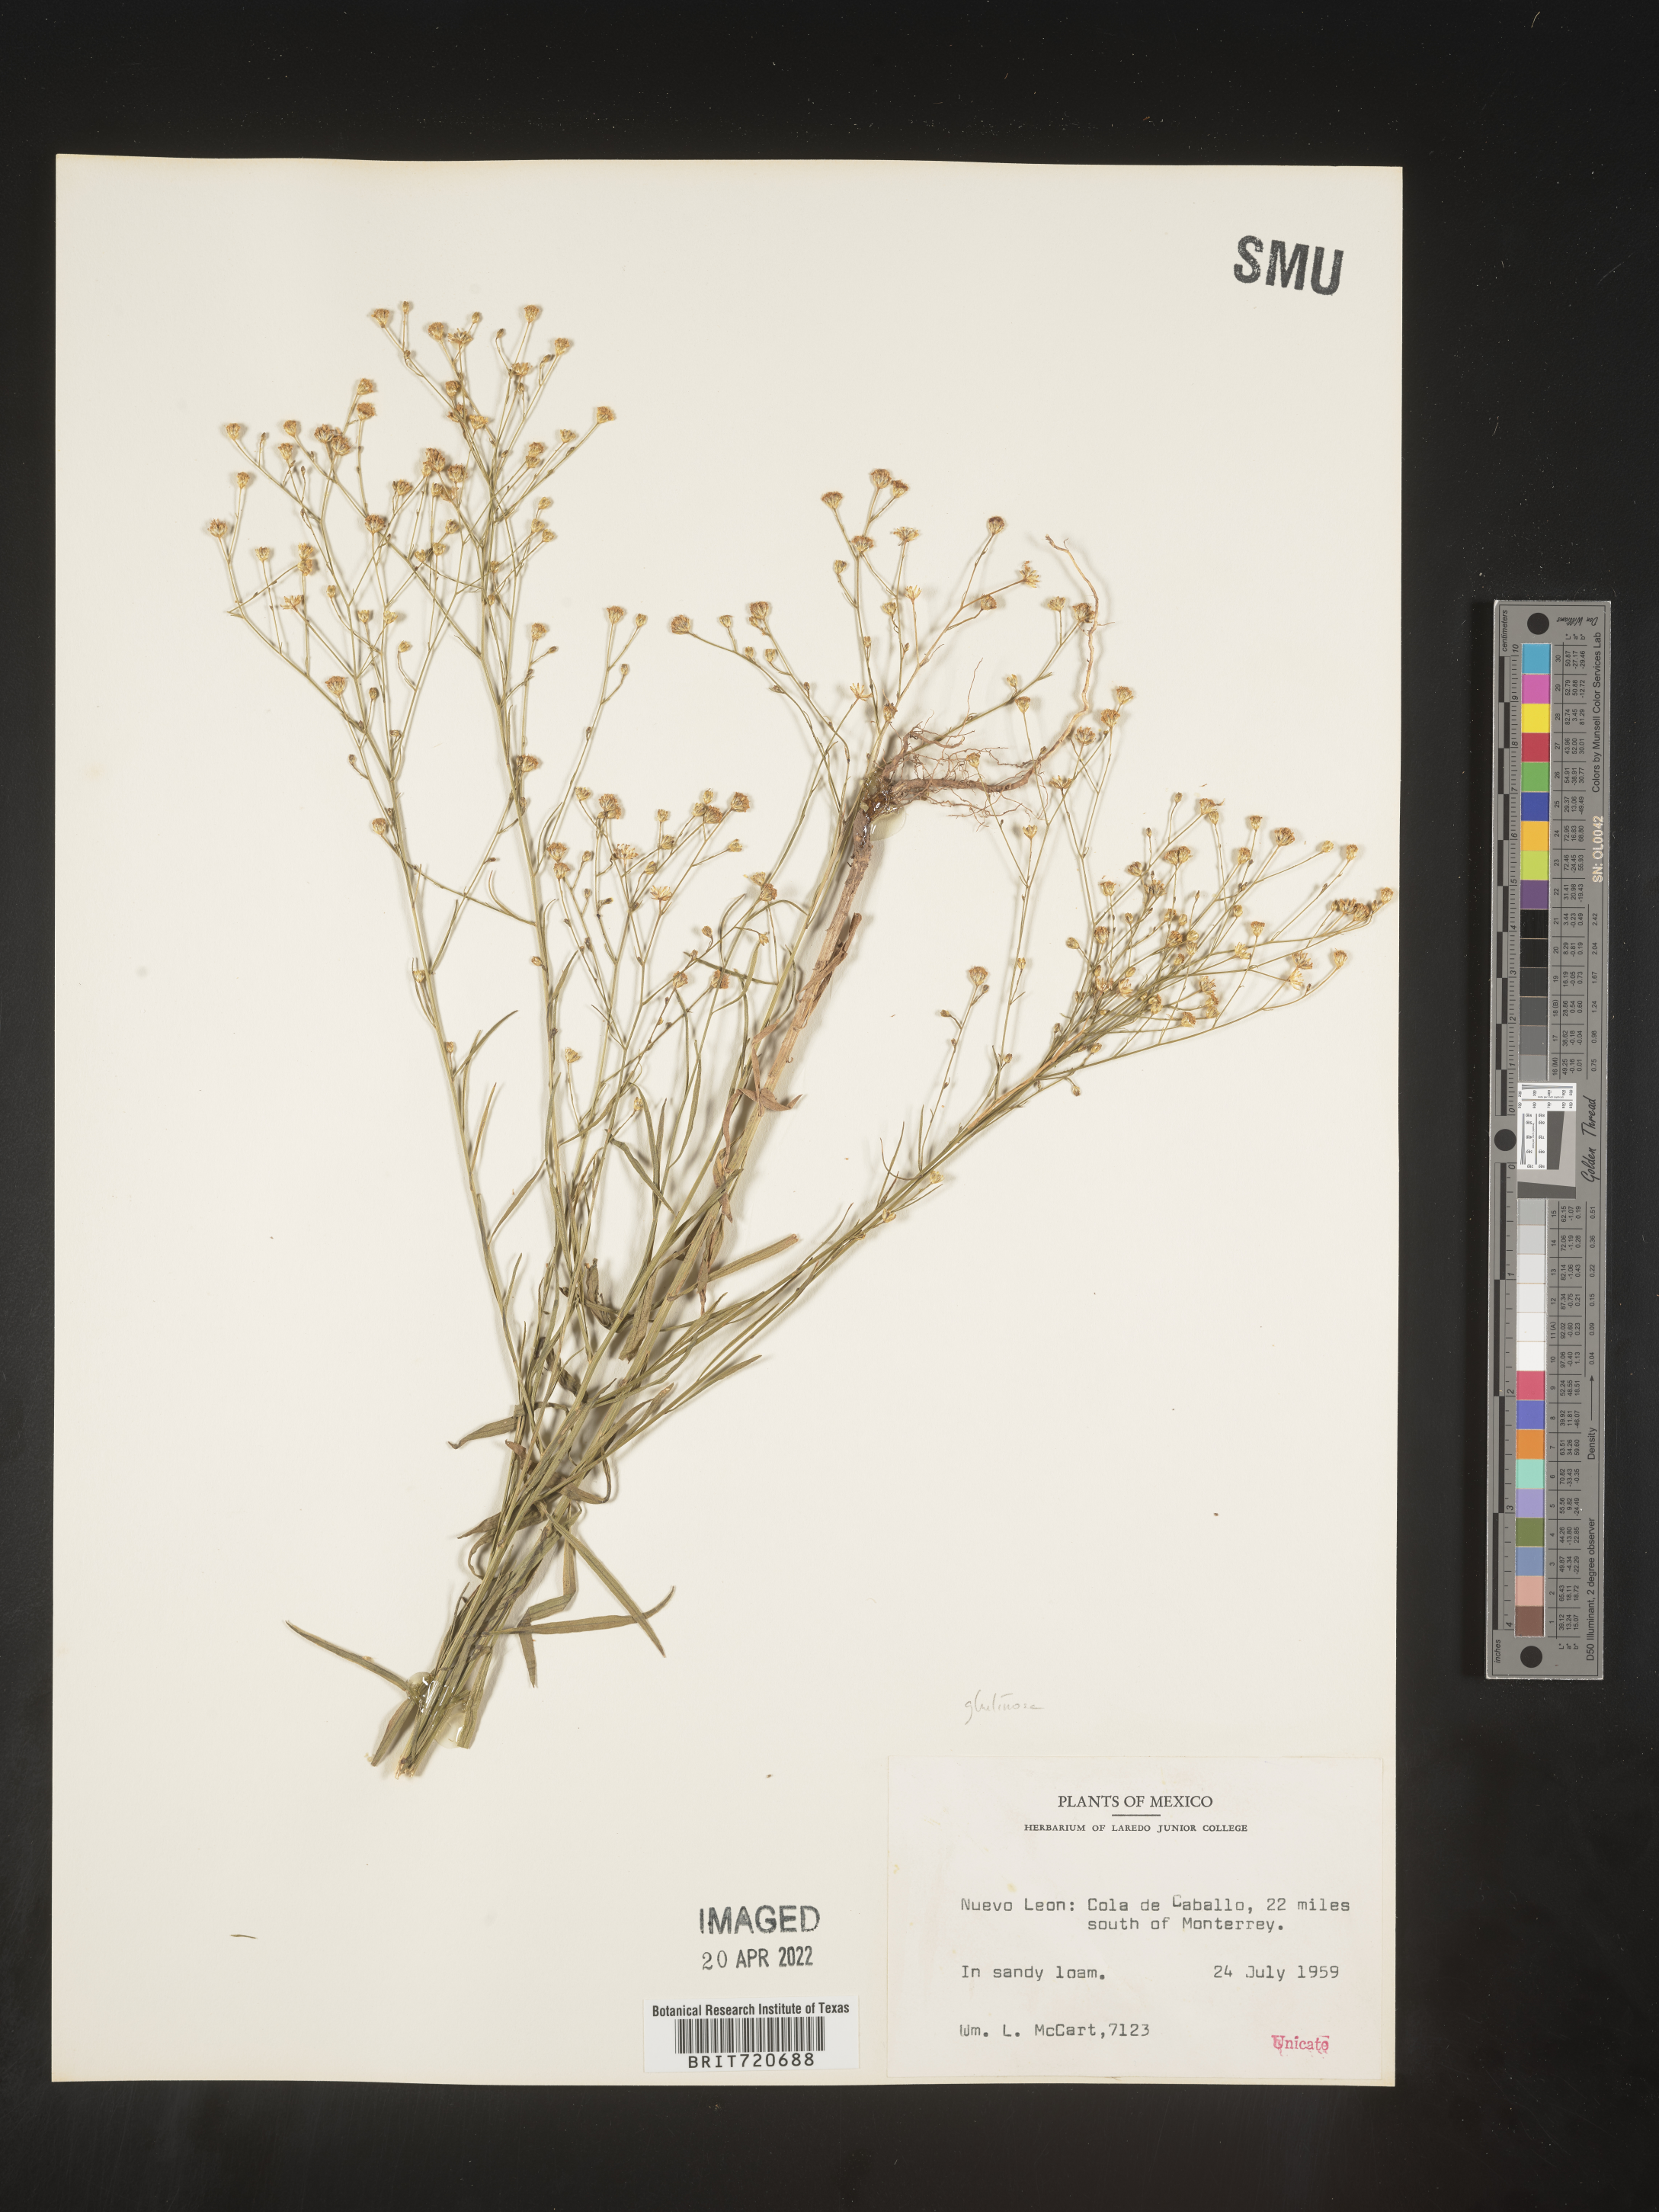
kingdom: Plantae
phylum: Tracheophyta
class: Magnoliopsida
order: Asterales
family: Asteraceae
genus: Gutierrezia
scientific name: Gutierrezia texana
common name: Texas snakeweed
